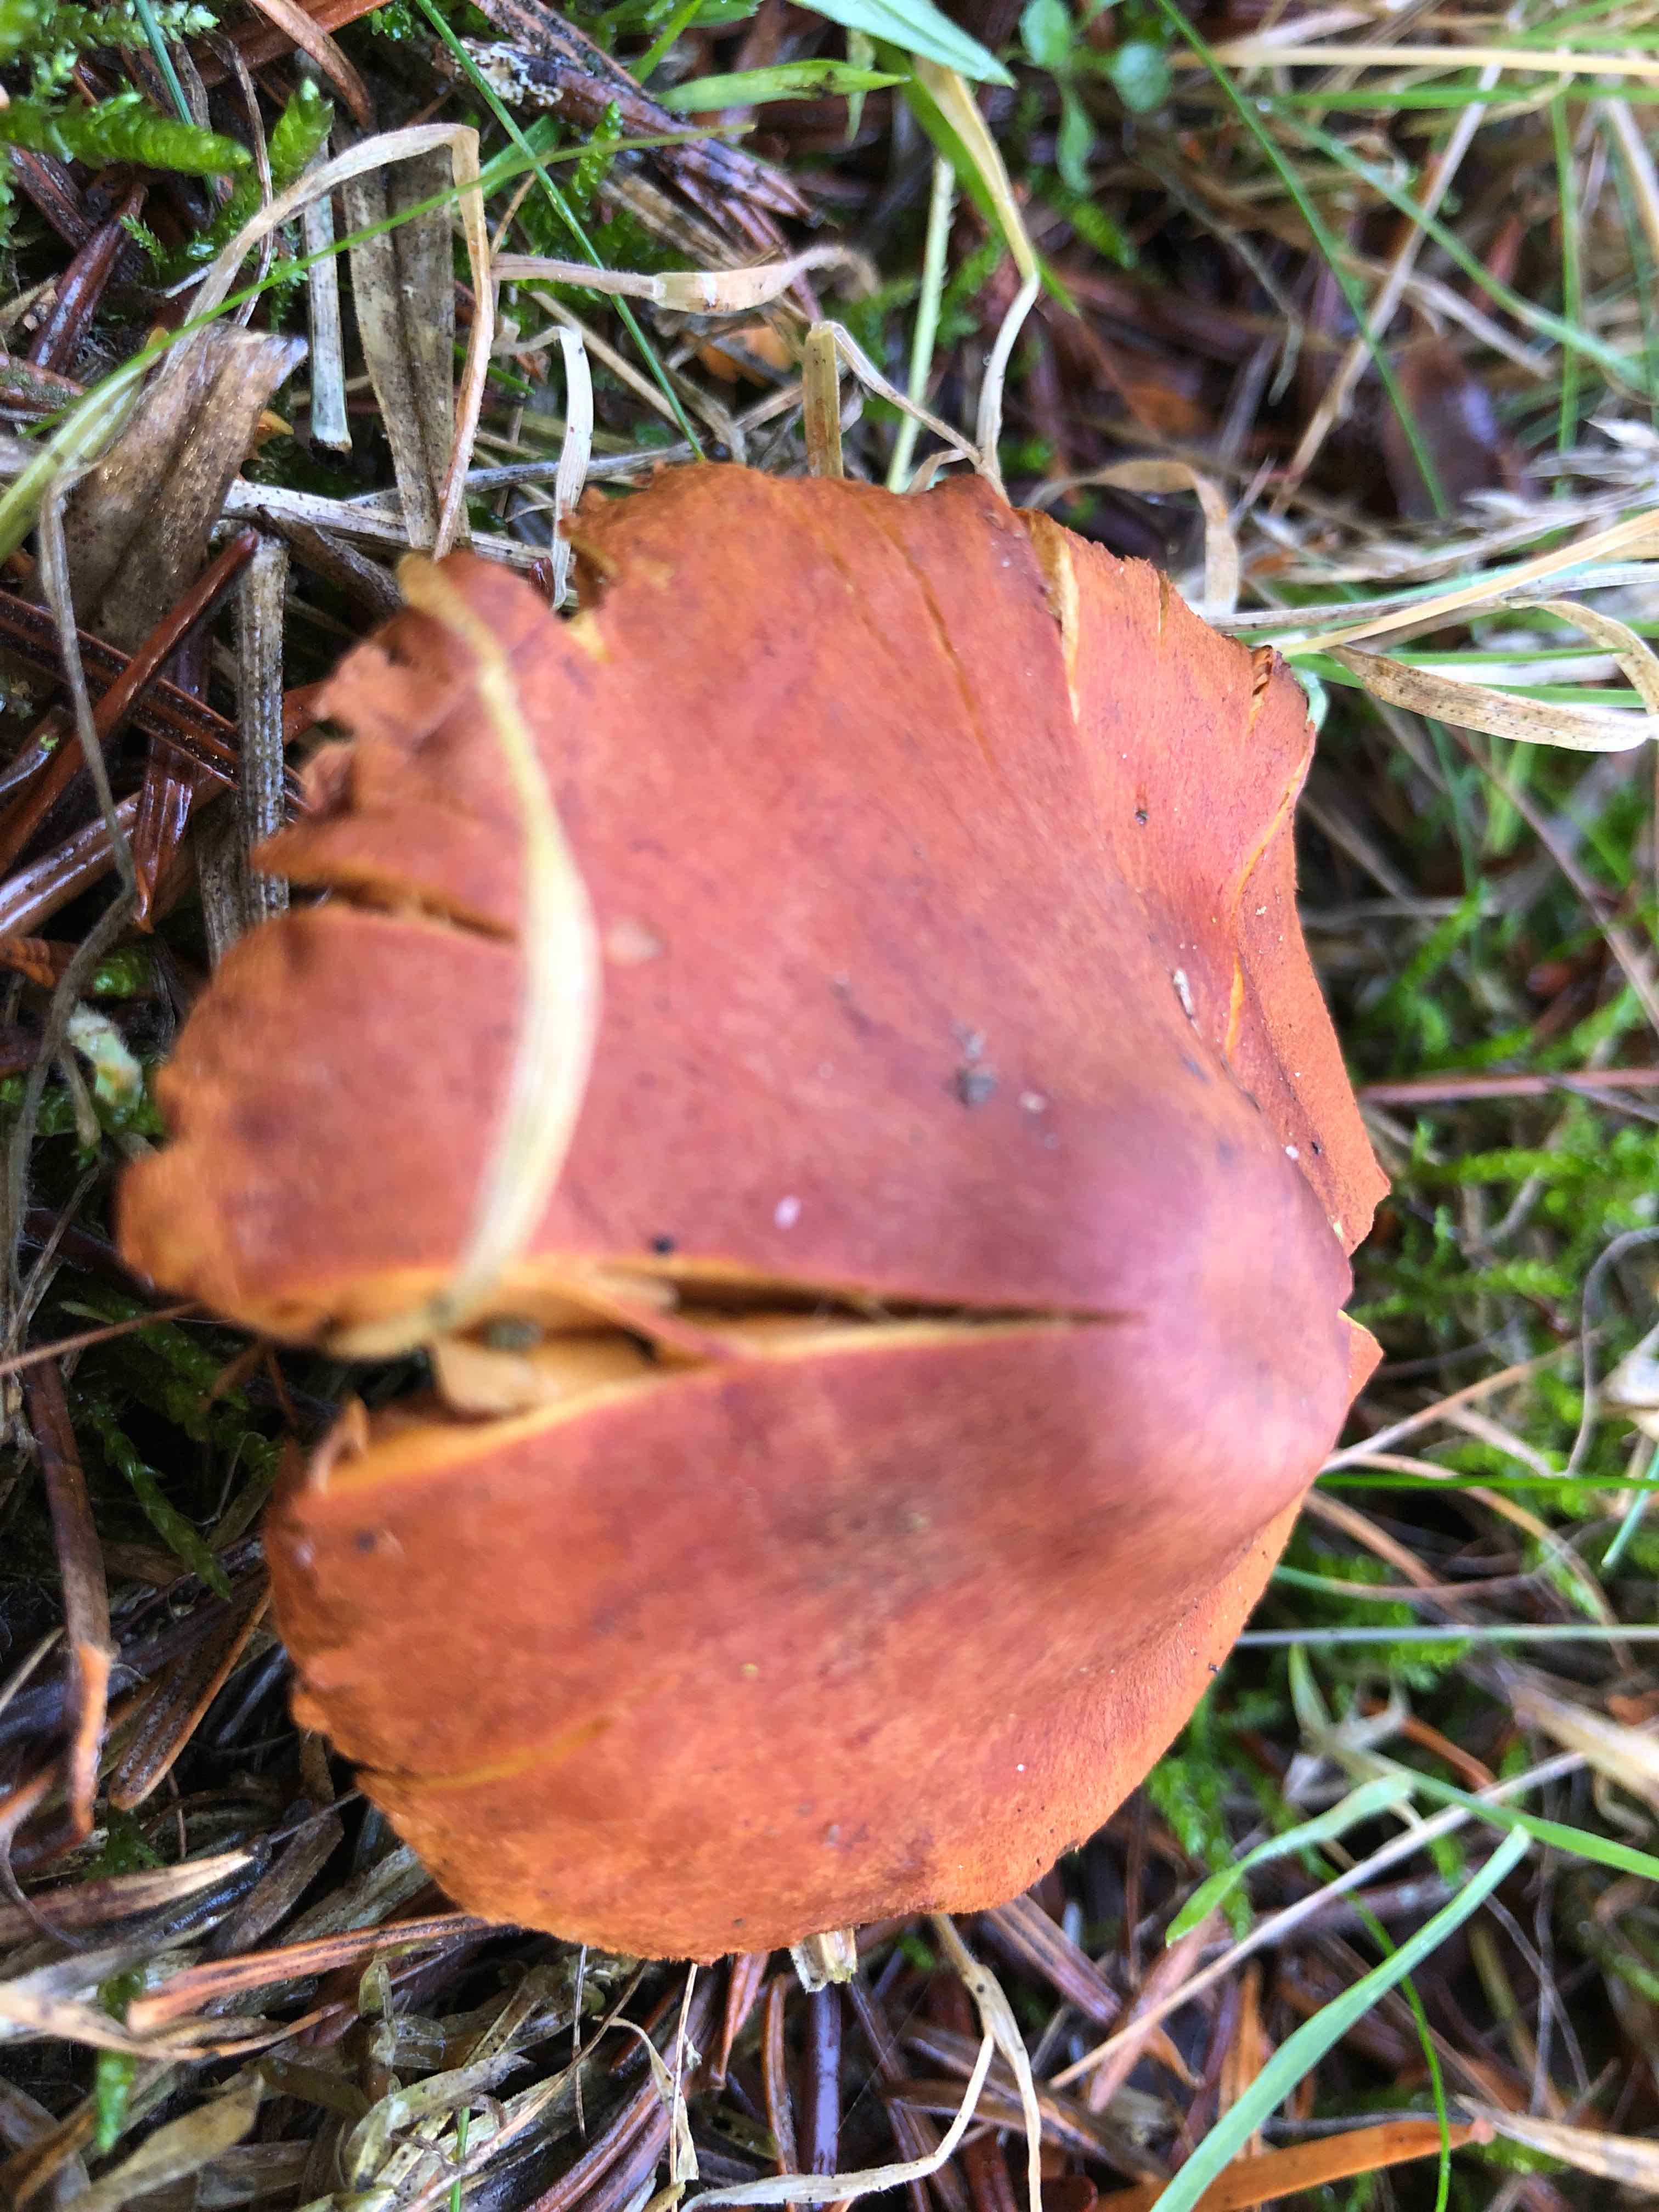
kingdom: Fungi
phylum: Basidiomycota
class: Agaricomycetes
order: Agaricales
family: Cortinariaceae
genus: Cortinarius
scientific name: Cortinarius
